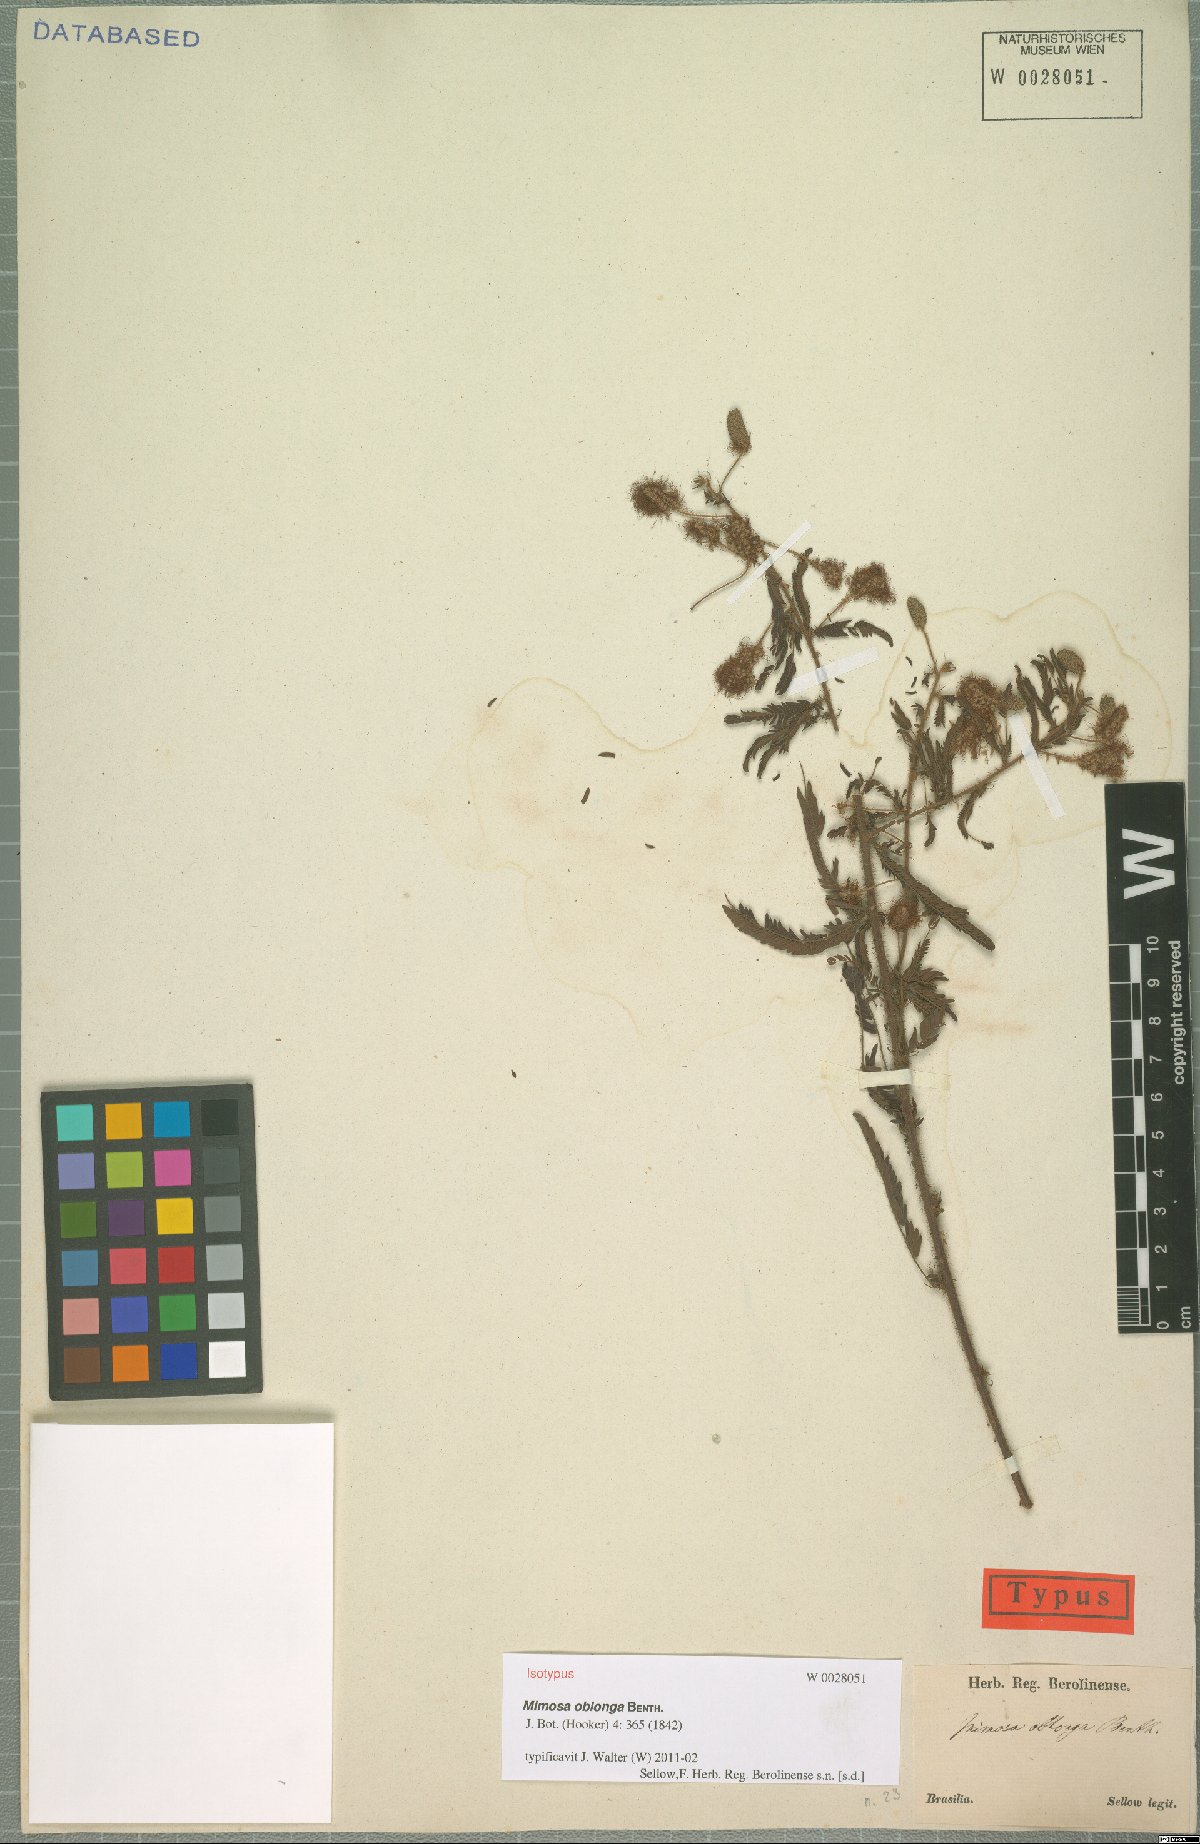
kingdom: Plantae
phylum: Tracheophyta
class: Magnoliopsida
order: Fabales
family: Fabaceae
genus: Mimosa
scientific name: Mimosa oblonga
